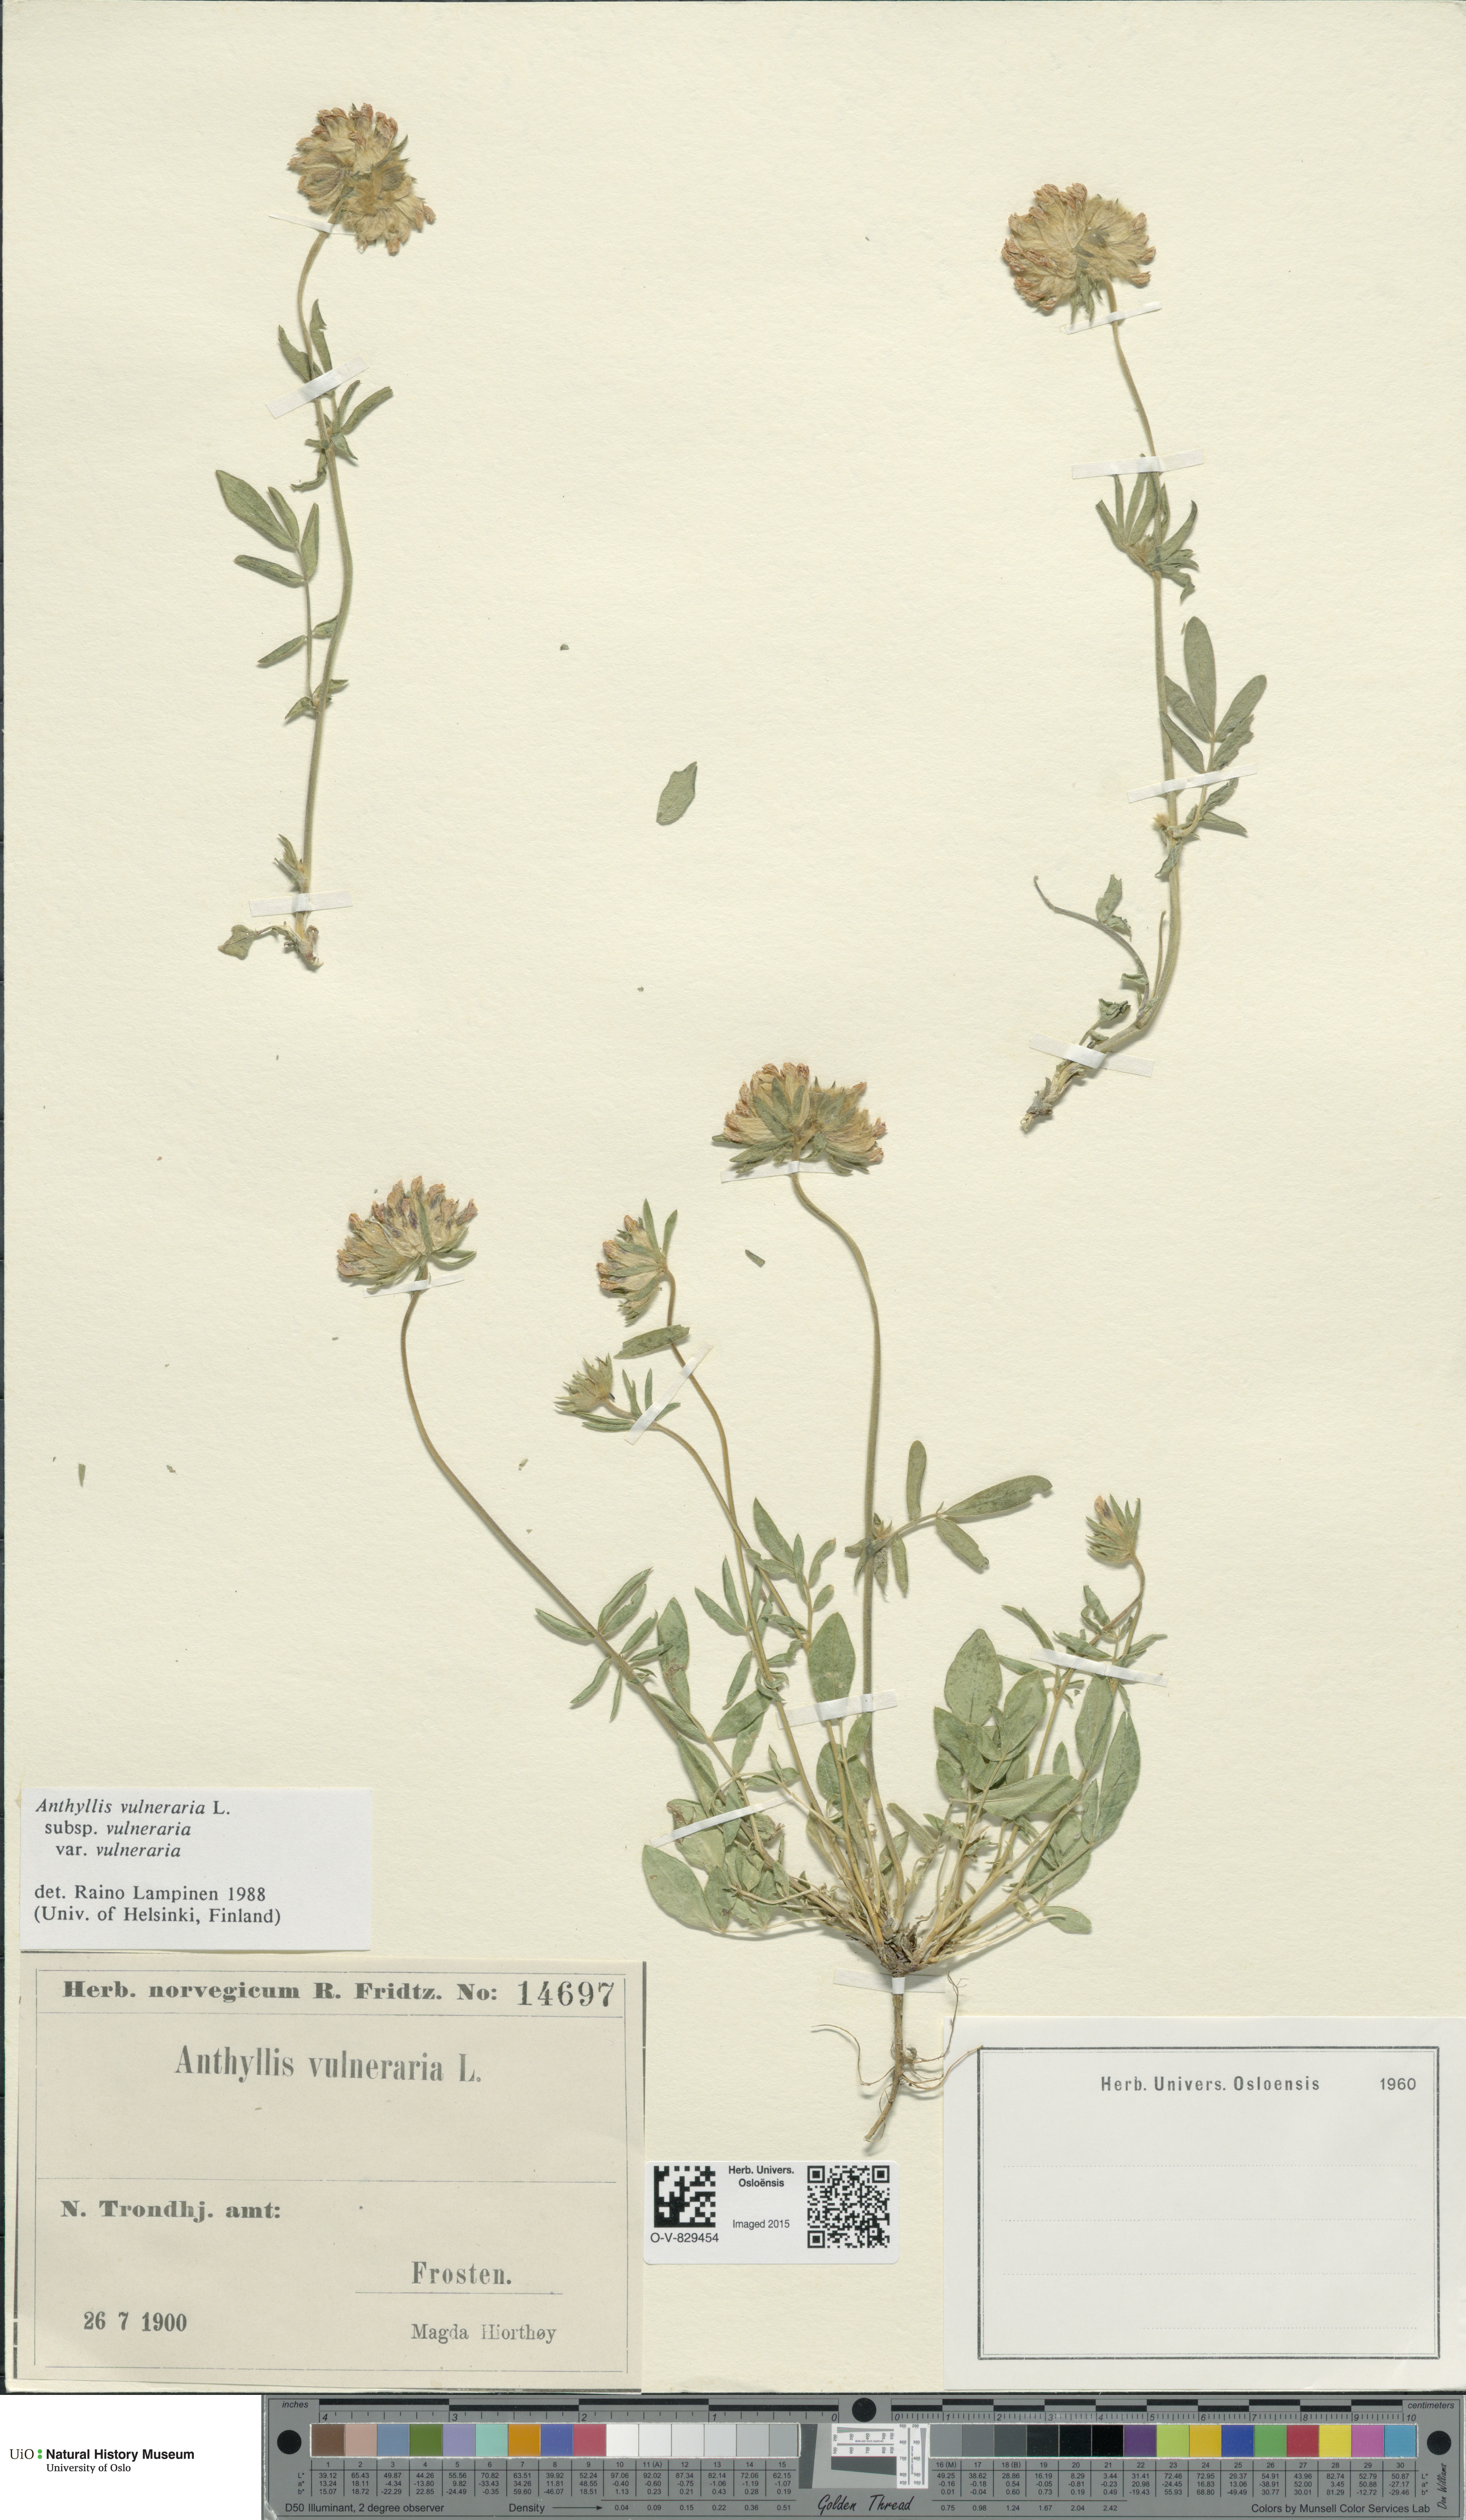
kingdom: Plantae
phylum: Tracheophyta
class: Magnoliopsida
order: Fabales
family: Fabaceae
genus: Anthyllis
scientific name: Anthyllis vulneraria
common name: Kidney vetch
